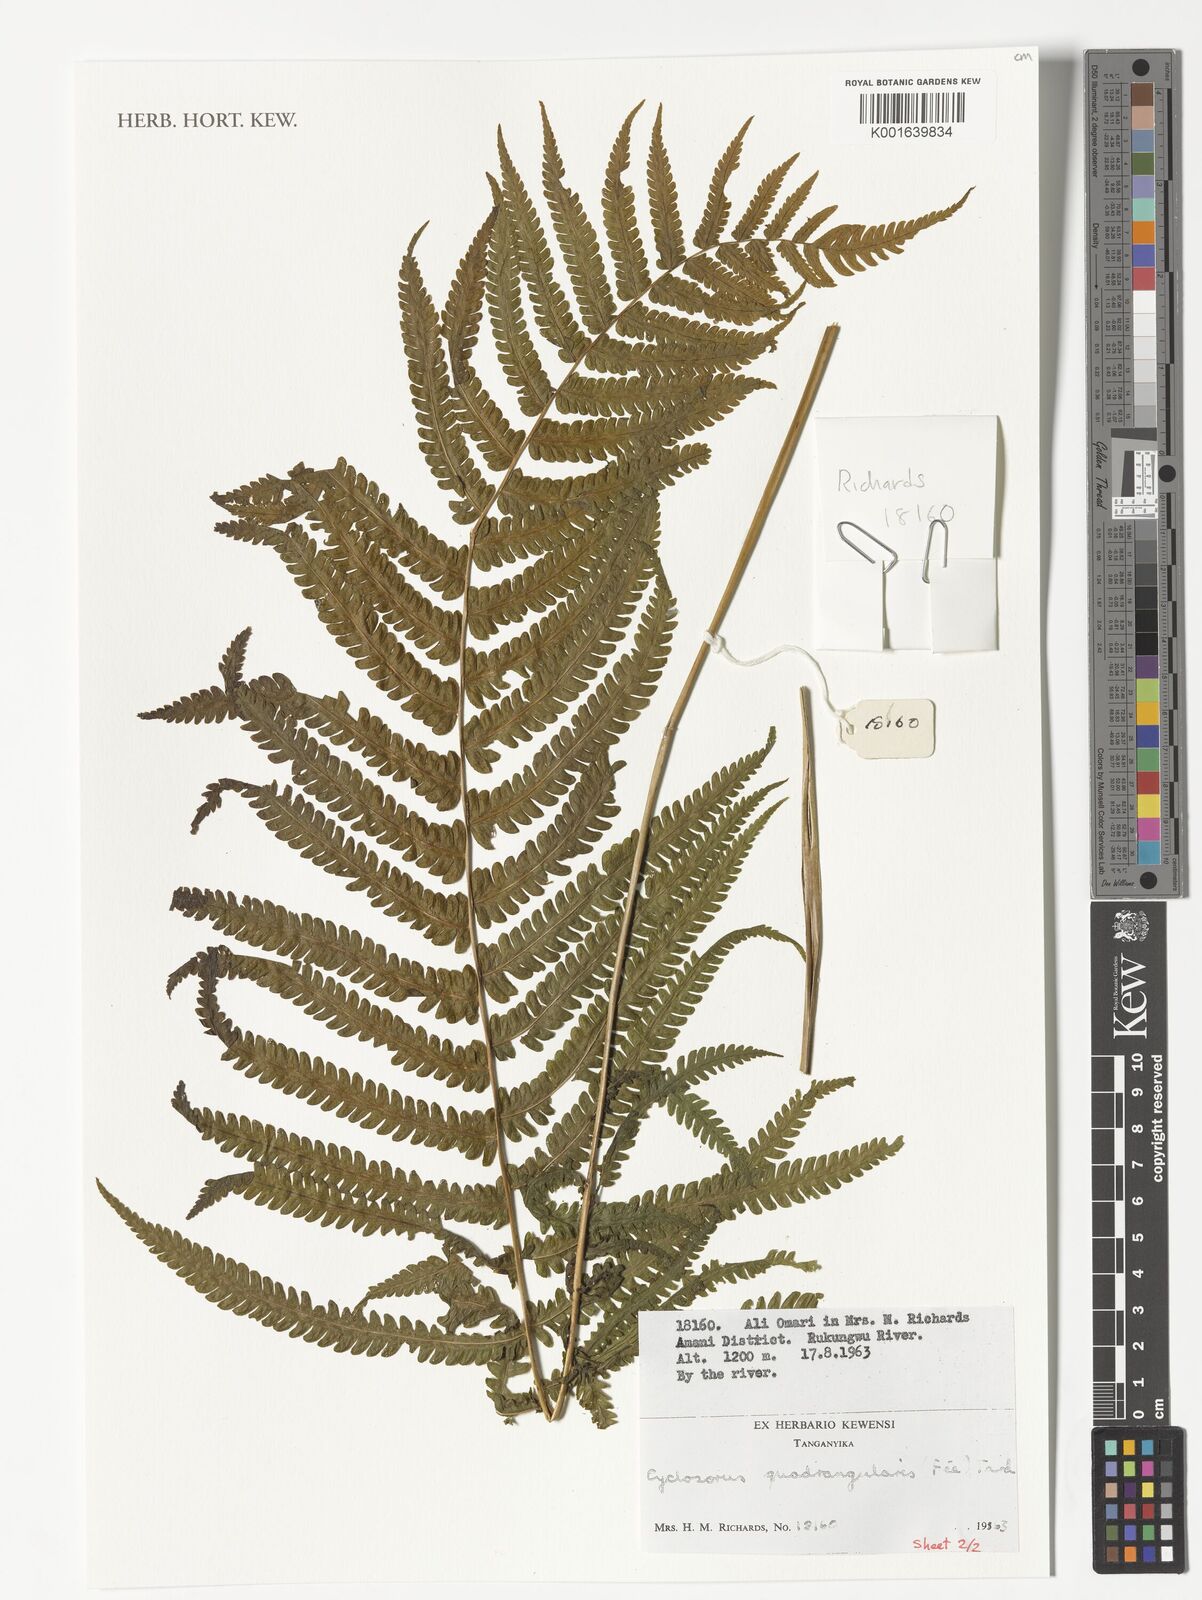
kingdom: Plantae
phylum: Tracheophyta
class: Polypodiopsida
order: Polypodiales
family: Thelypteridaceae
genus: Christella
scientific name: Christella hispidula
